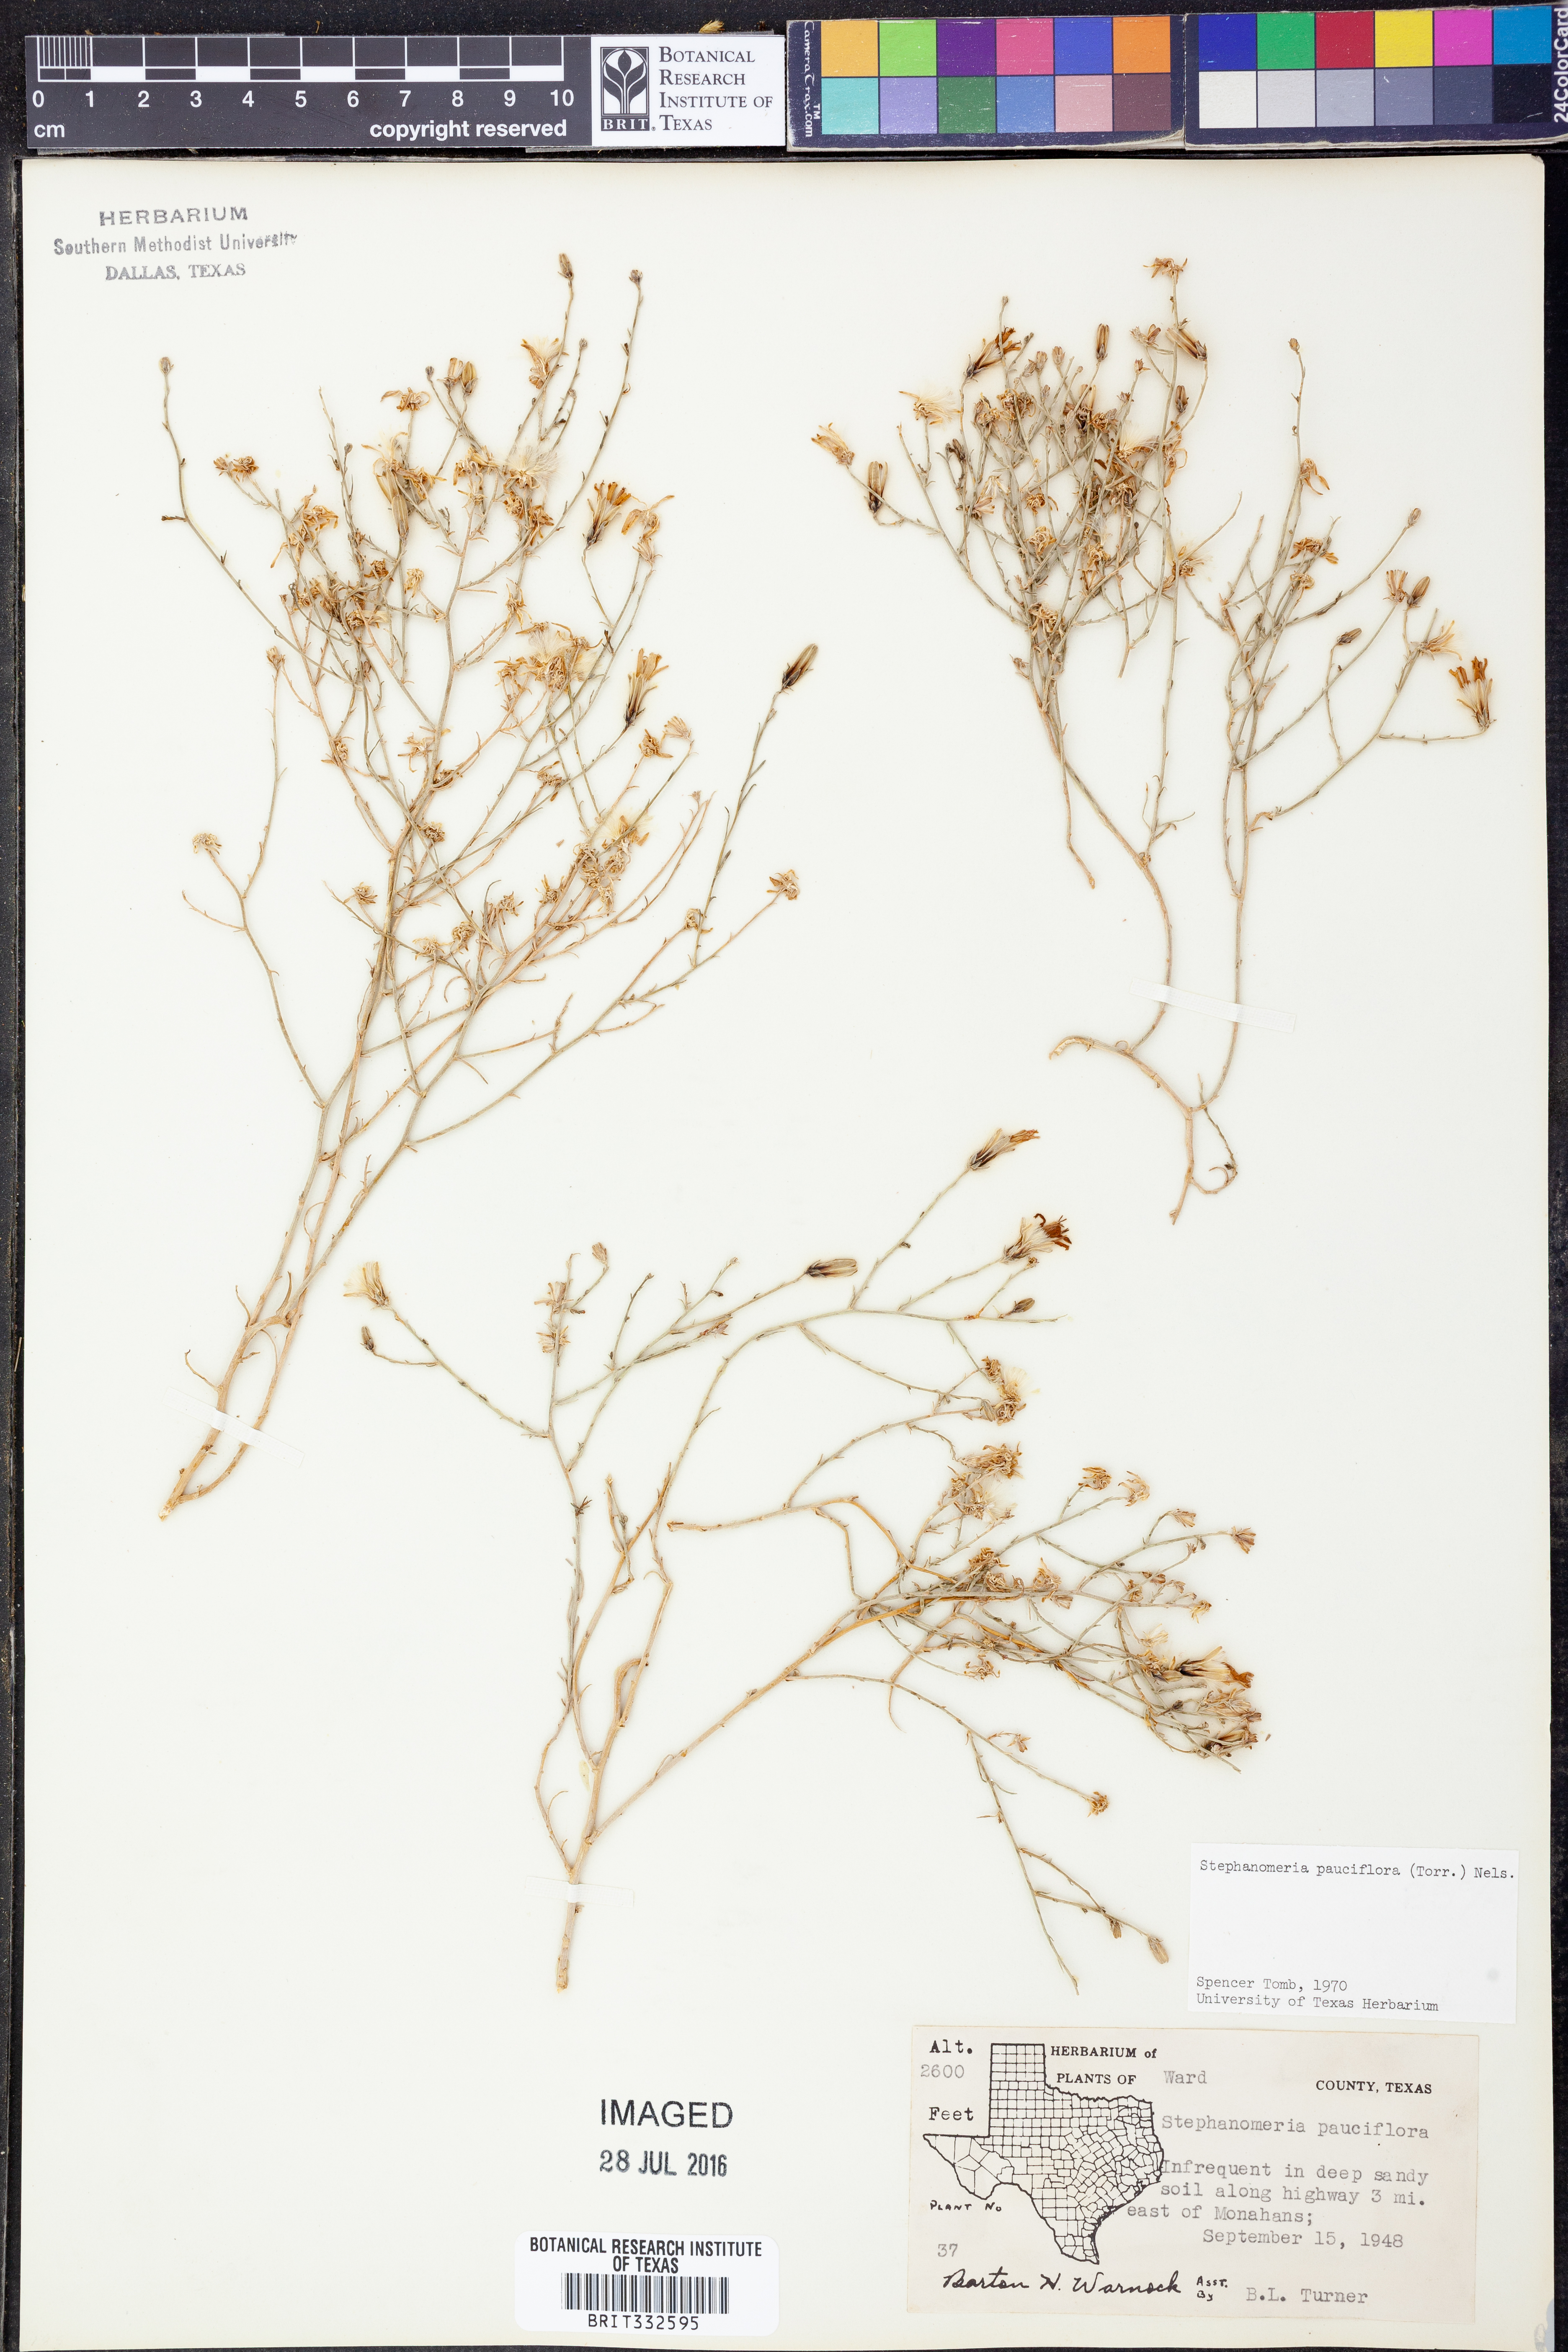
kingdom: Plantae
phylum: Tracheophyta
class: Magnoliopsida
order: Asterales
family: Asteraceae
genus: Stephanomeria
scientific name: Stephanomeria pauciflora
